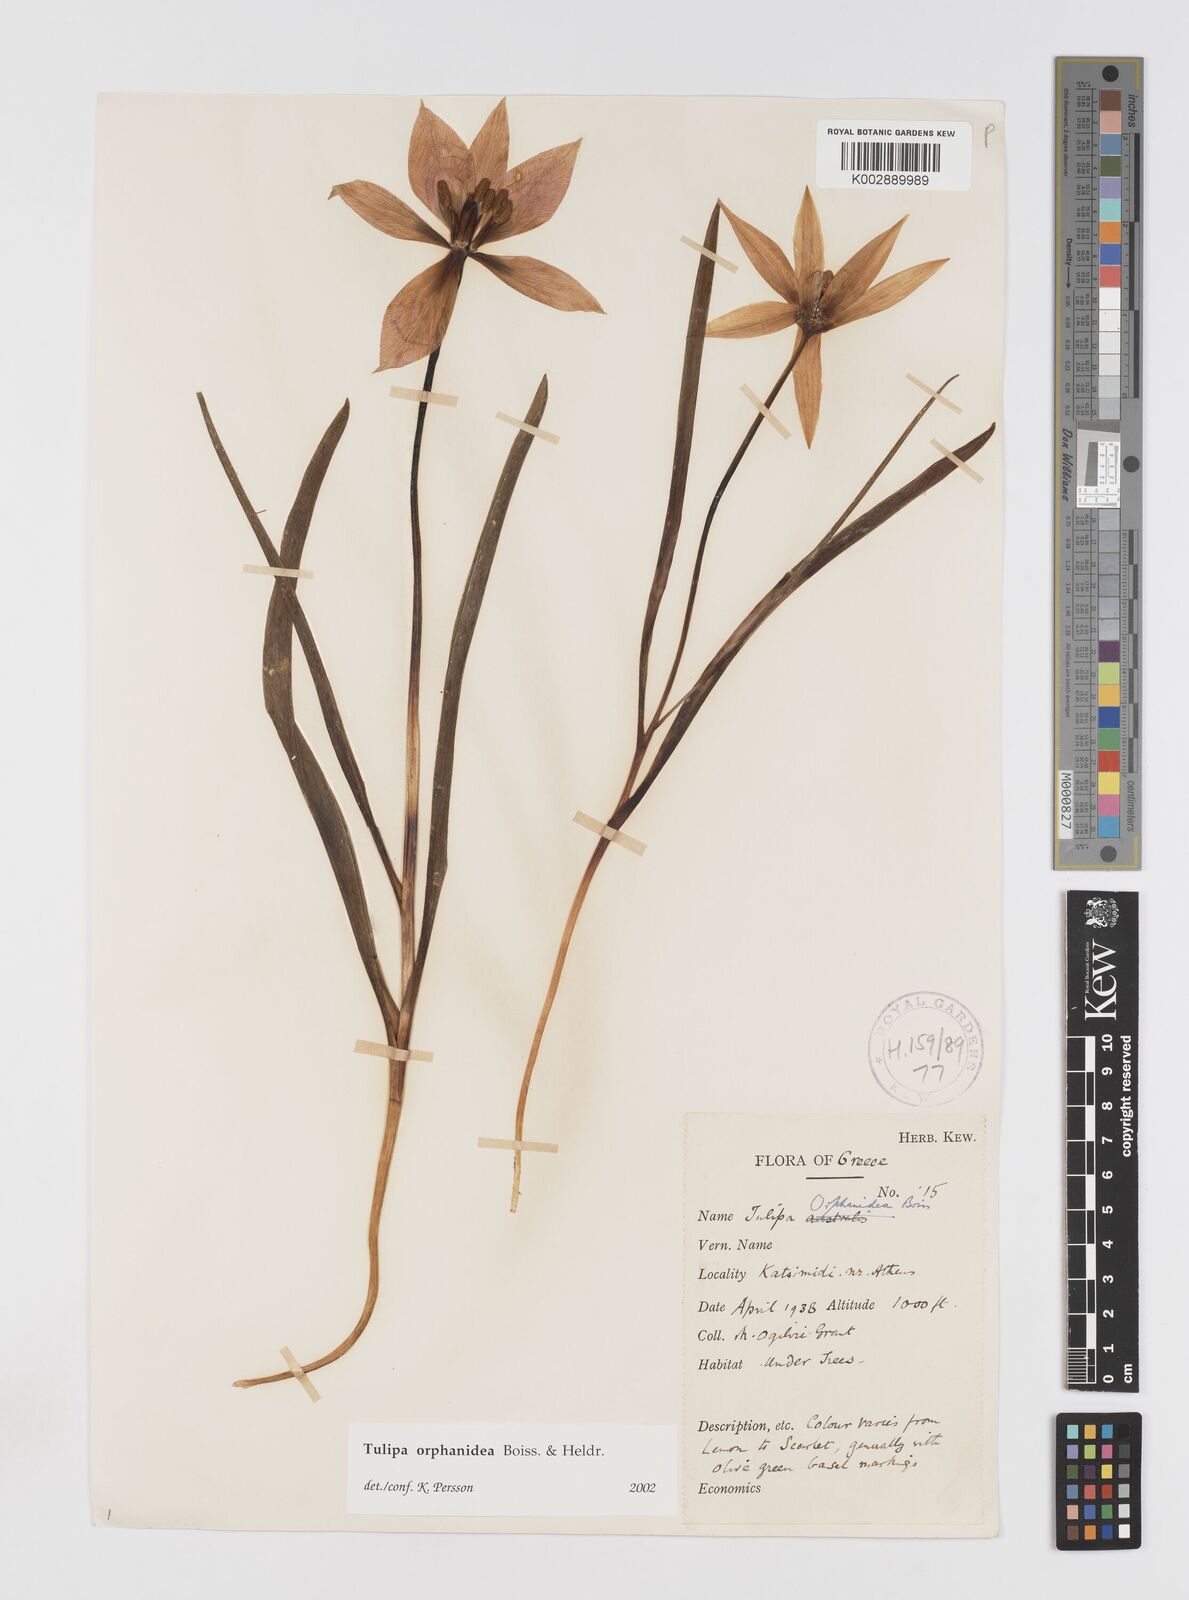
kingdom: Plantae
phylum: Tracheophyta
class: Liliopsida
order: Liliales
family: Liliaceae
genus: Tulipa
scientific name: Tulipa orphanidea
